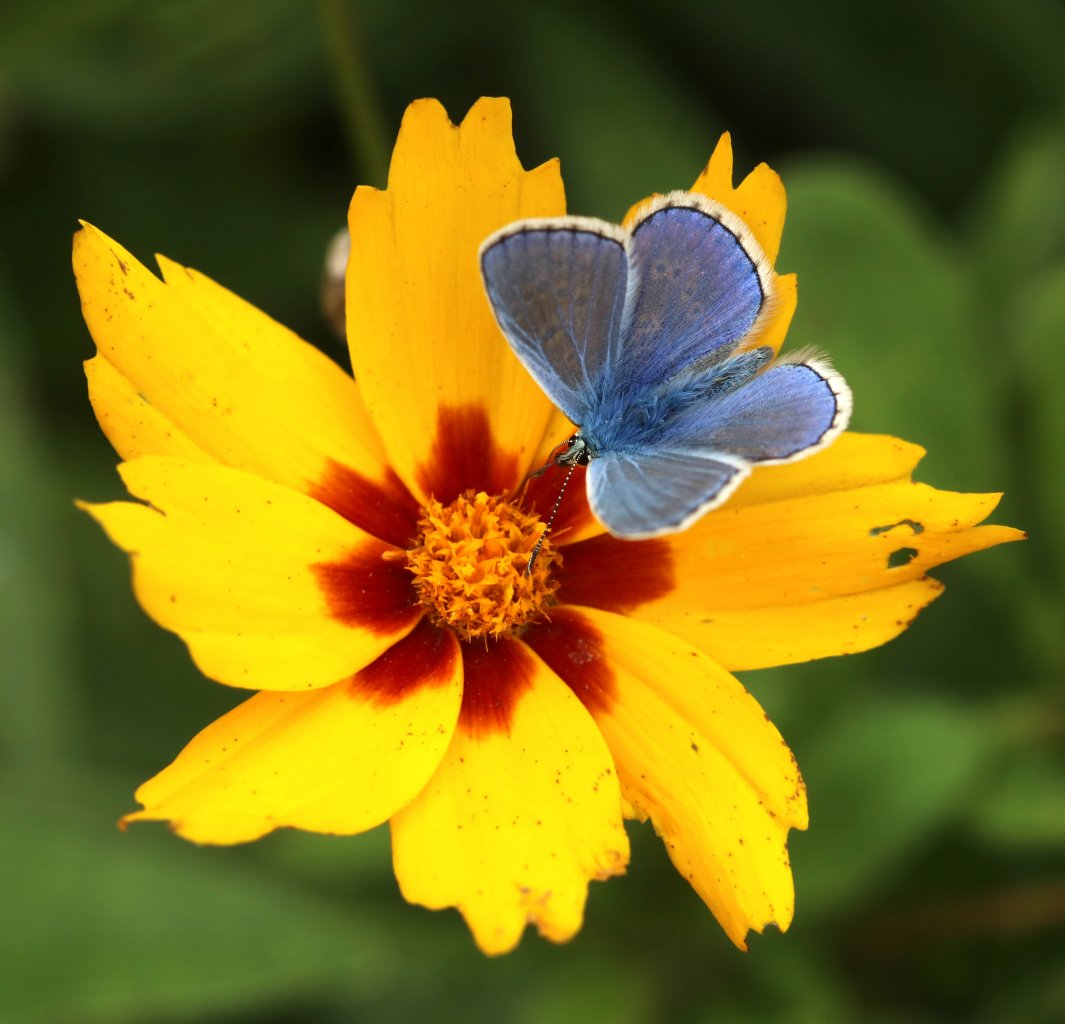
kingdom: Animalia
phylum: Arthropoda
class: Insecta
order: Lepidoptera
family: Lycaenidae
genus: Polyommatus
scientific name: Polyommatus icarus
